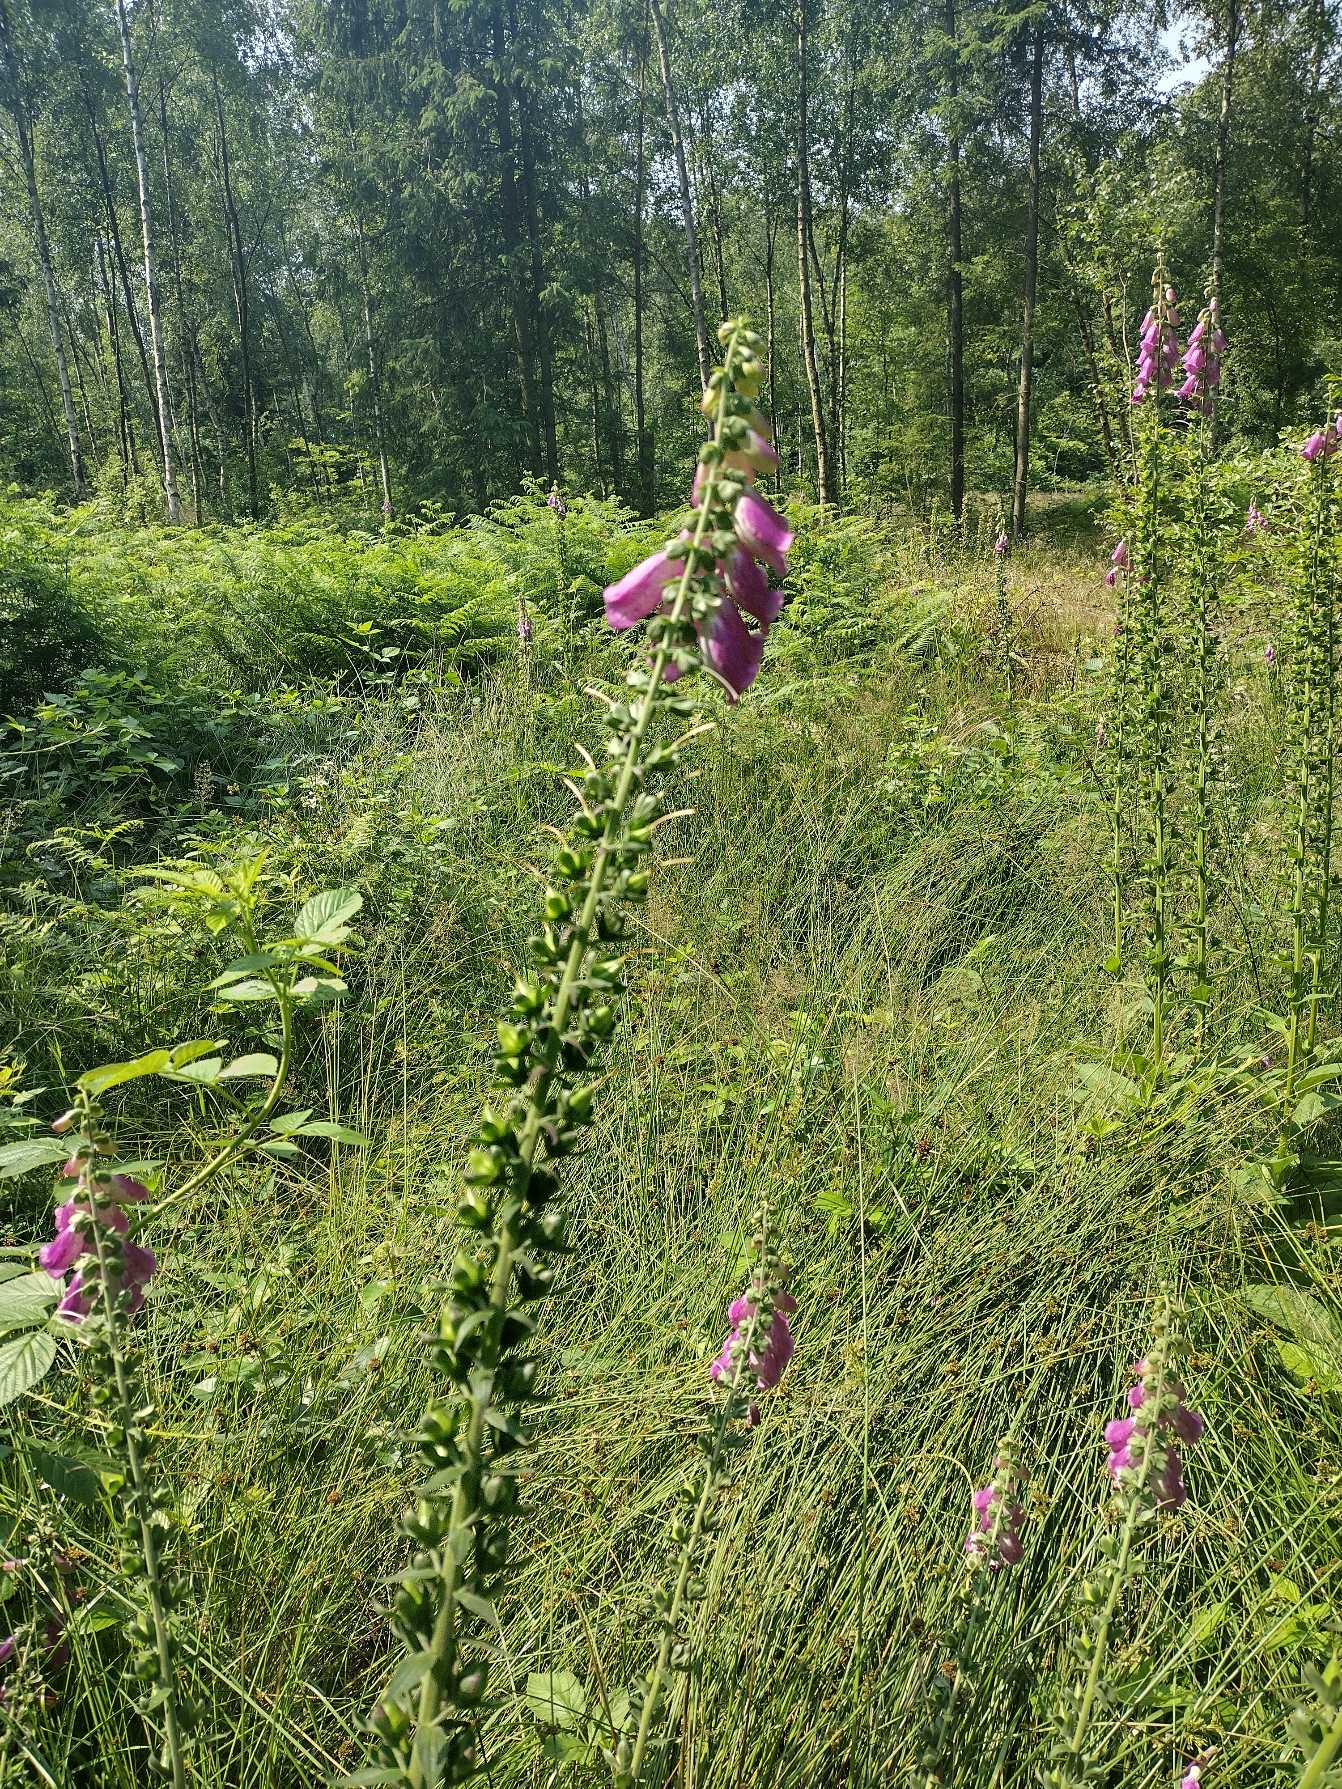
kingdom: Plantae
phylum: Tracheophyta
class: Magnoliopsida
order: Lamiales
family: Plantaginaceae
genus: Digitalis
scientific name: Digitalis purpurea
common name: Almindelig fingerbøl
